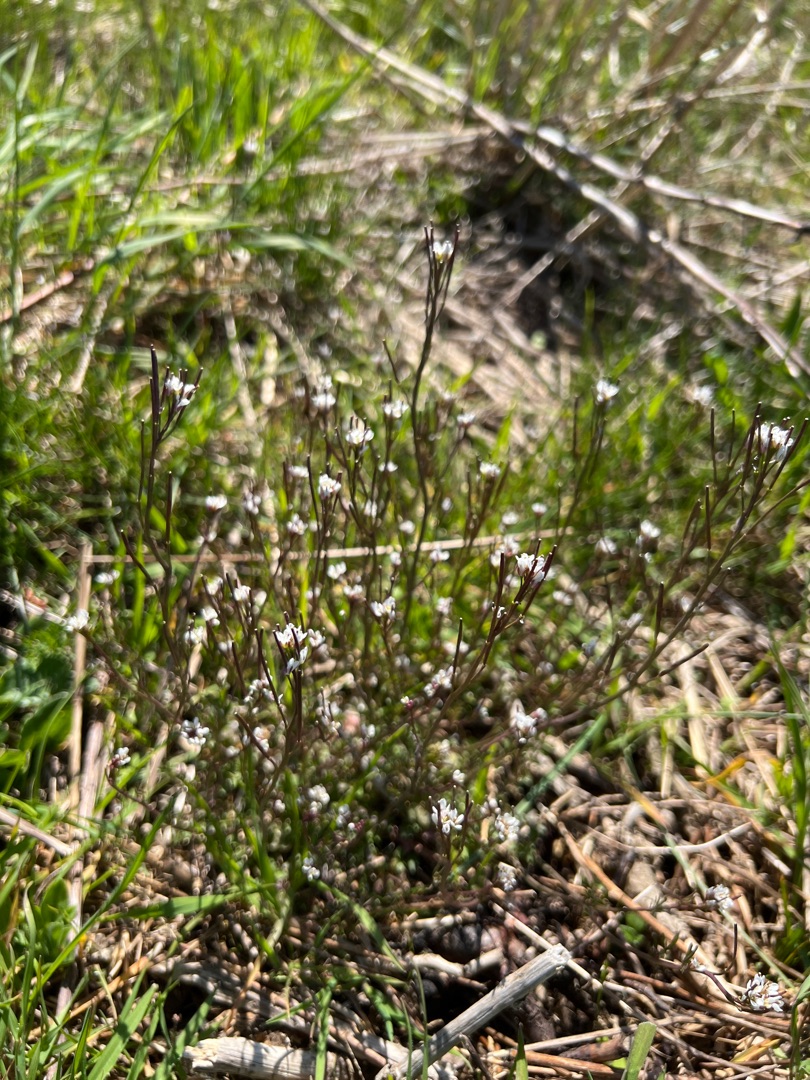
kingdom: Plantae
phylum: Tracheophyta
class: Magnoliopsida
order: Brassicales
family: Brassicaceae
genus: Cardamine
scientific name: Cardamine hirsuta
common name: Roset-springklap
